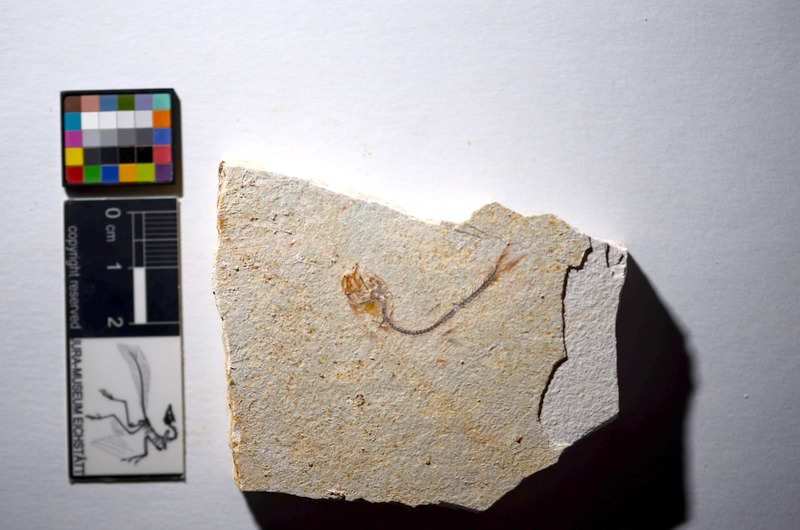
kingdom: Animalia
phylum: Chordata
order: Salmoniformes
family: Orthogonikleithridae
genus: Orthogonikleithrus
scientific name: Orthogonikleithrus hoelli
